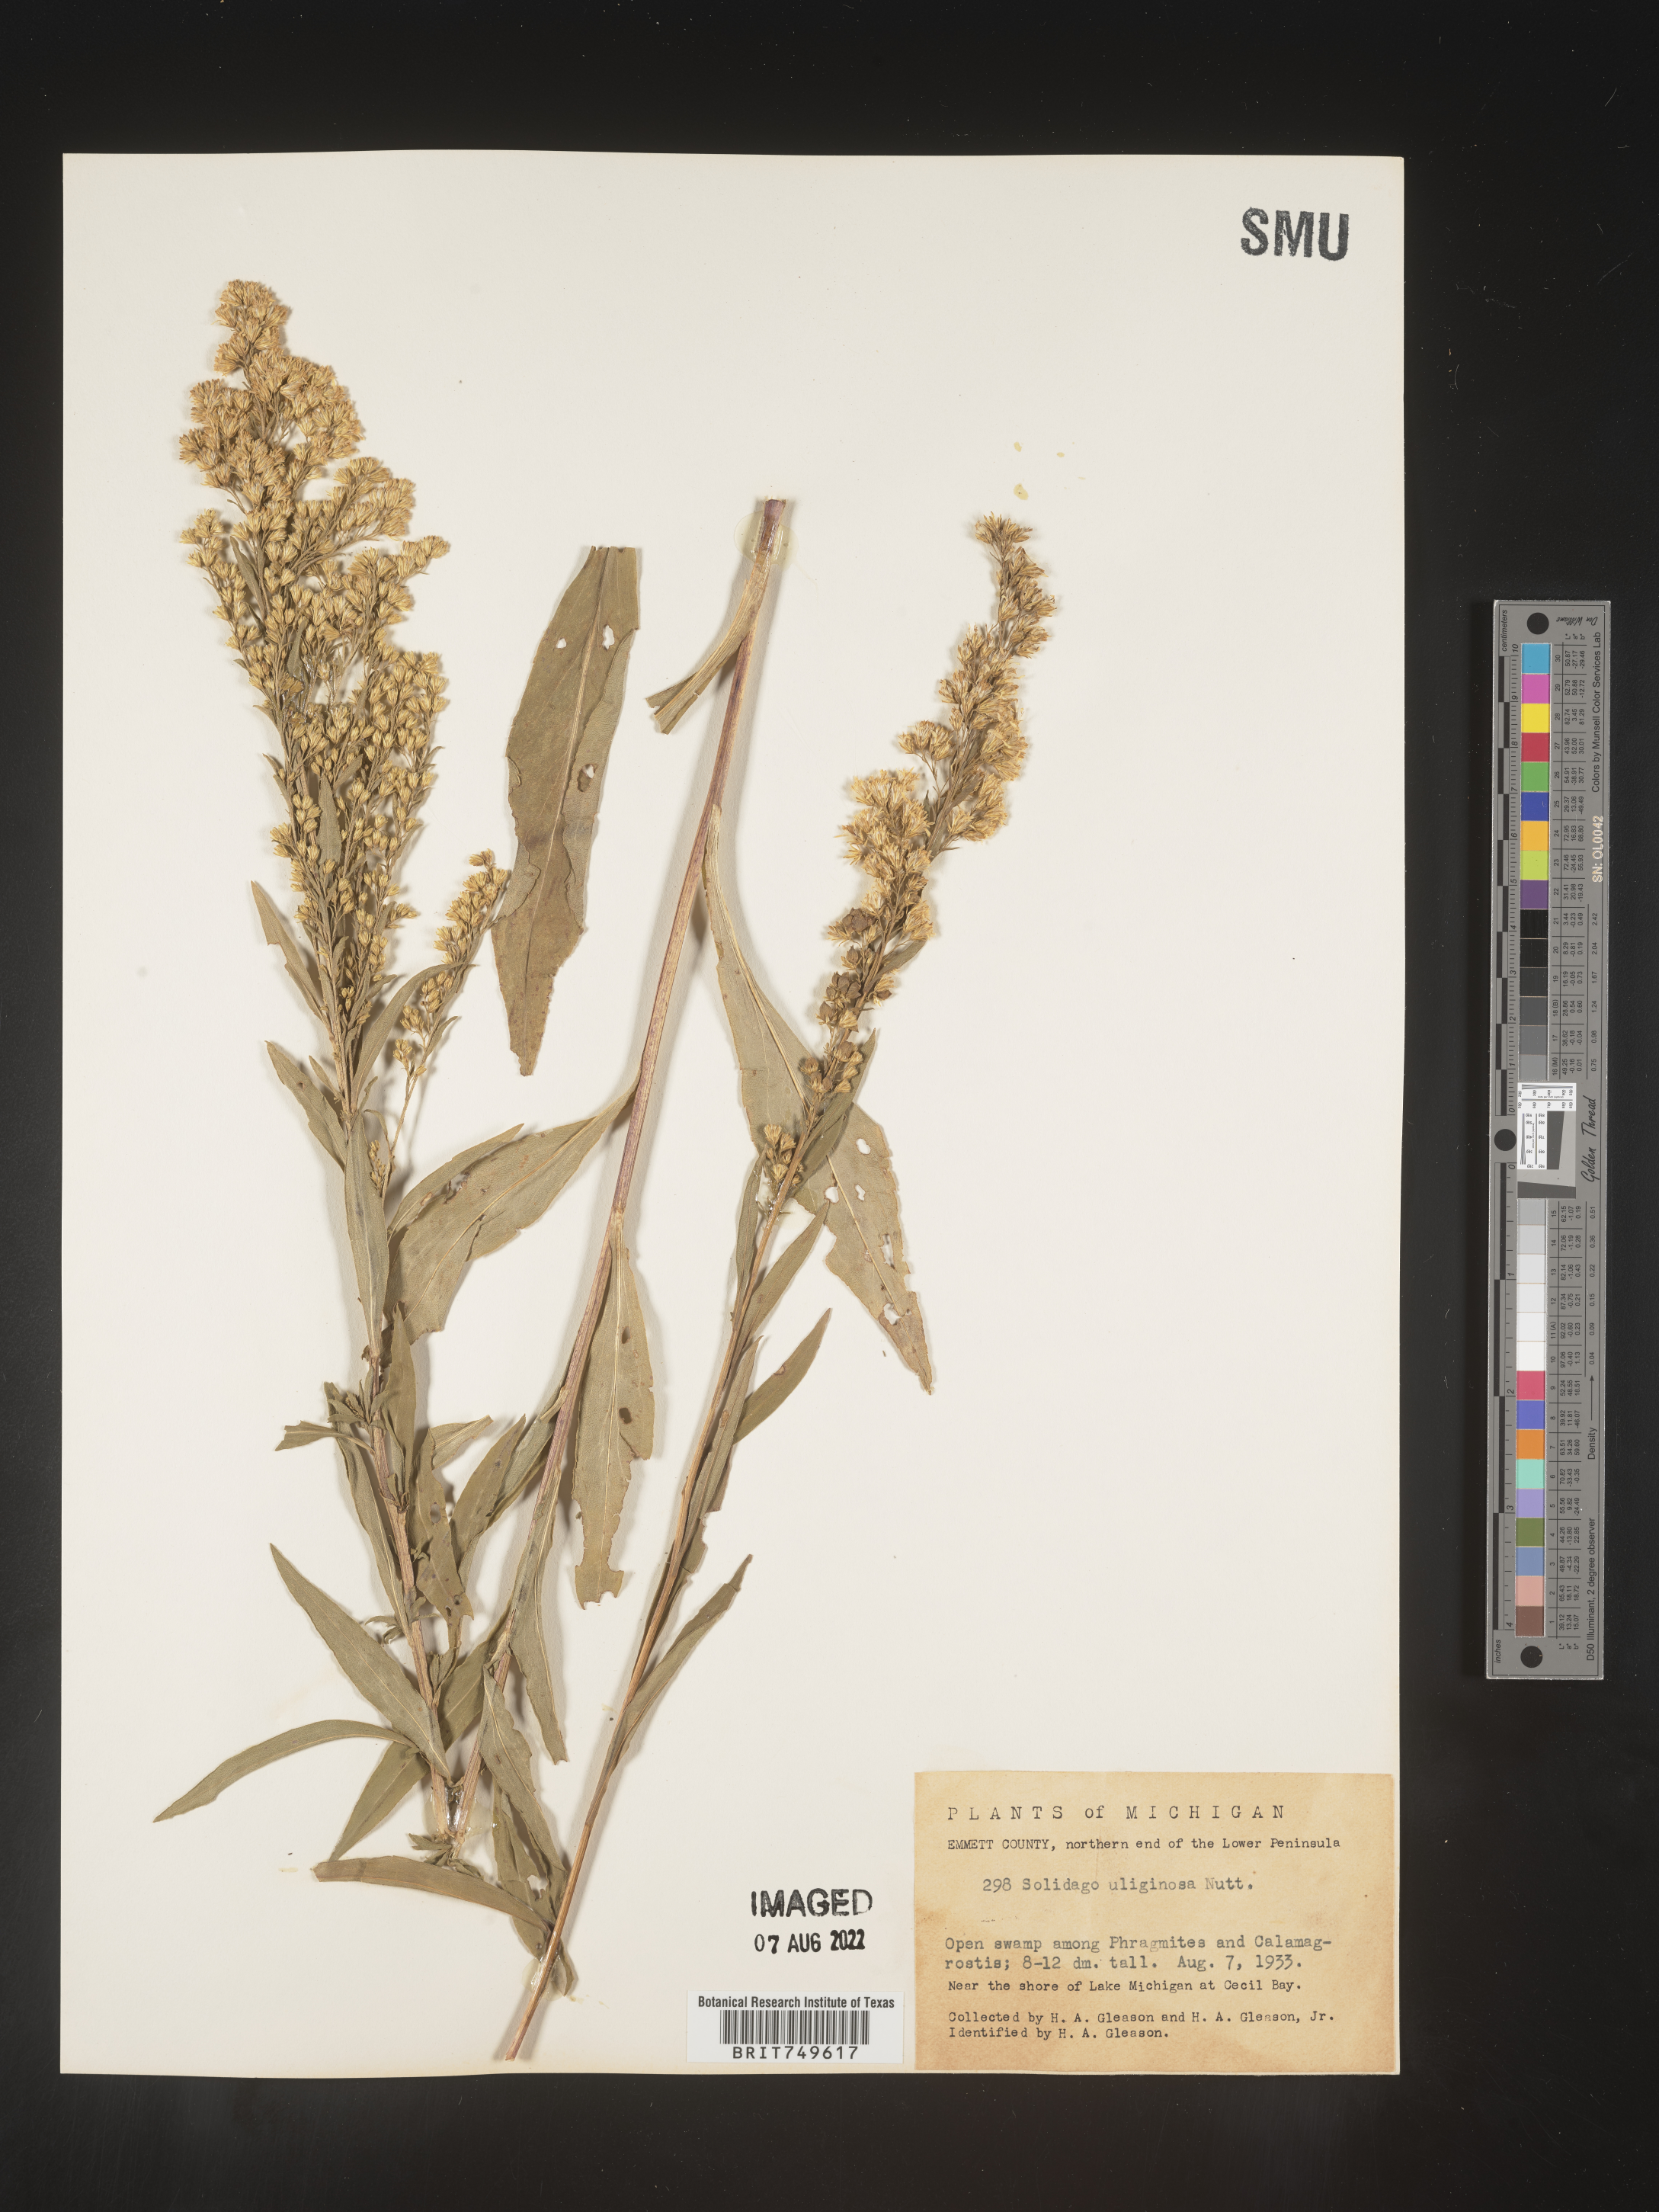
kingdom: Plantae
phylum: Tracheophyta
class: Magnoliopsida
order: Asterales
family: Asteraceae
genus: Solidago
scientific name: Solidago uliginosa
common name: Bog goldenrod
